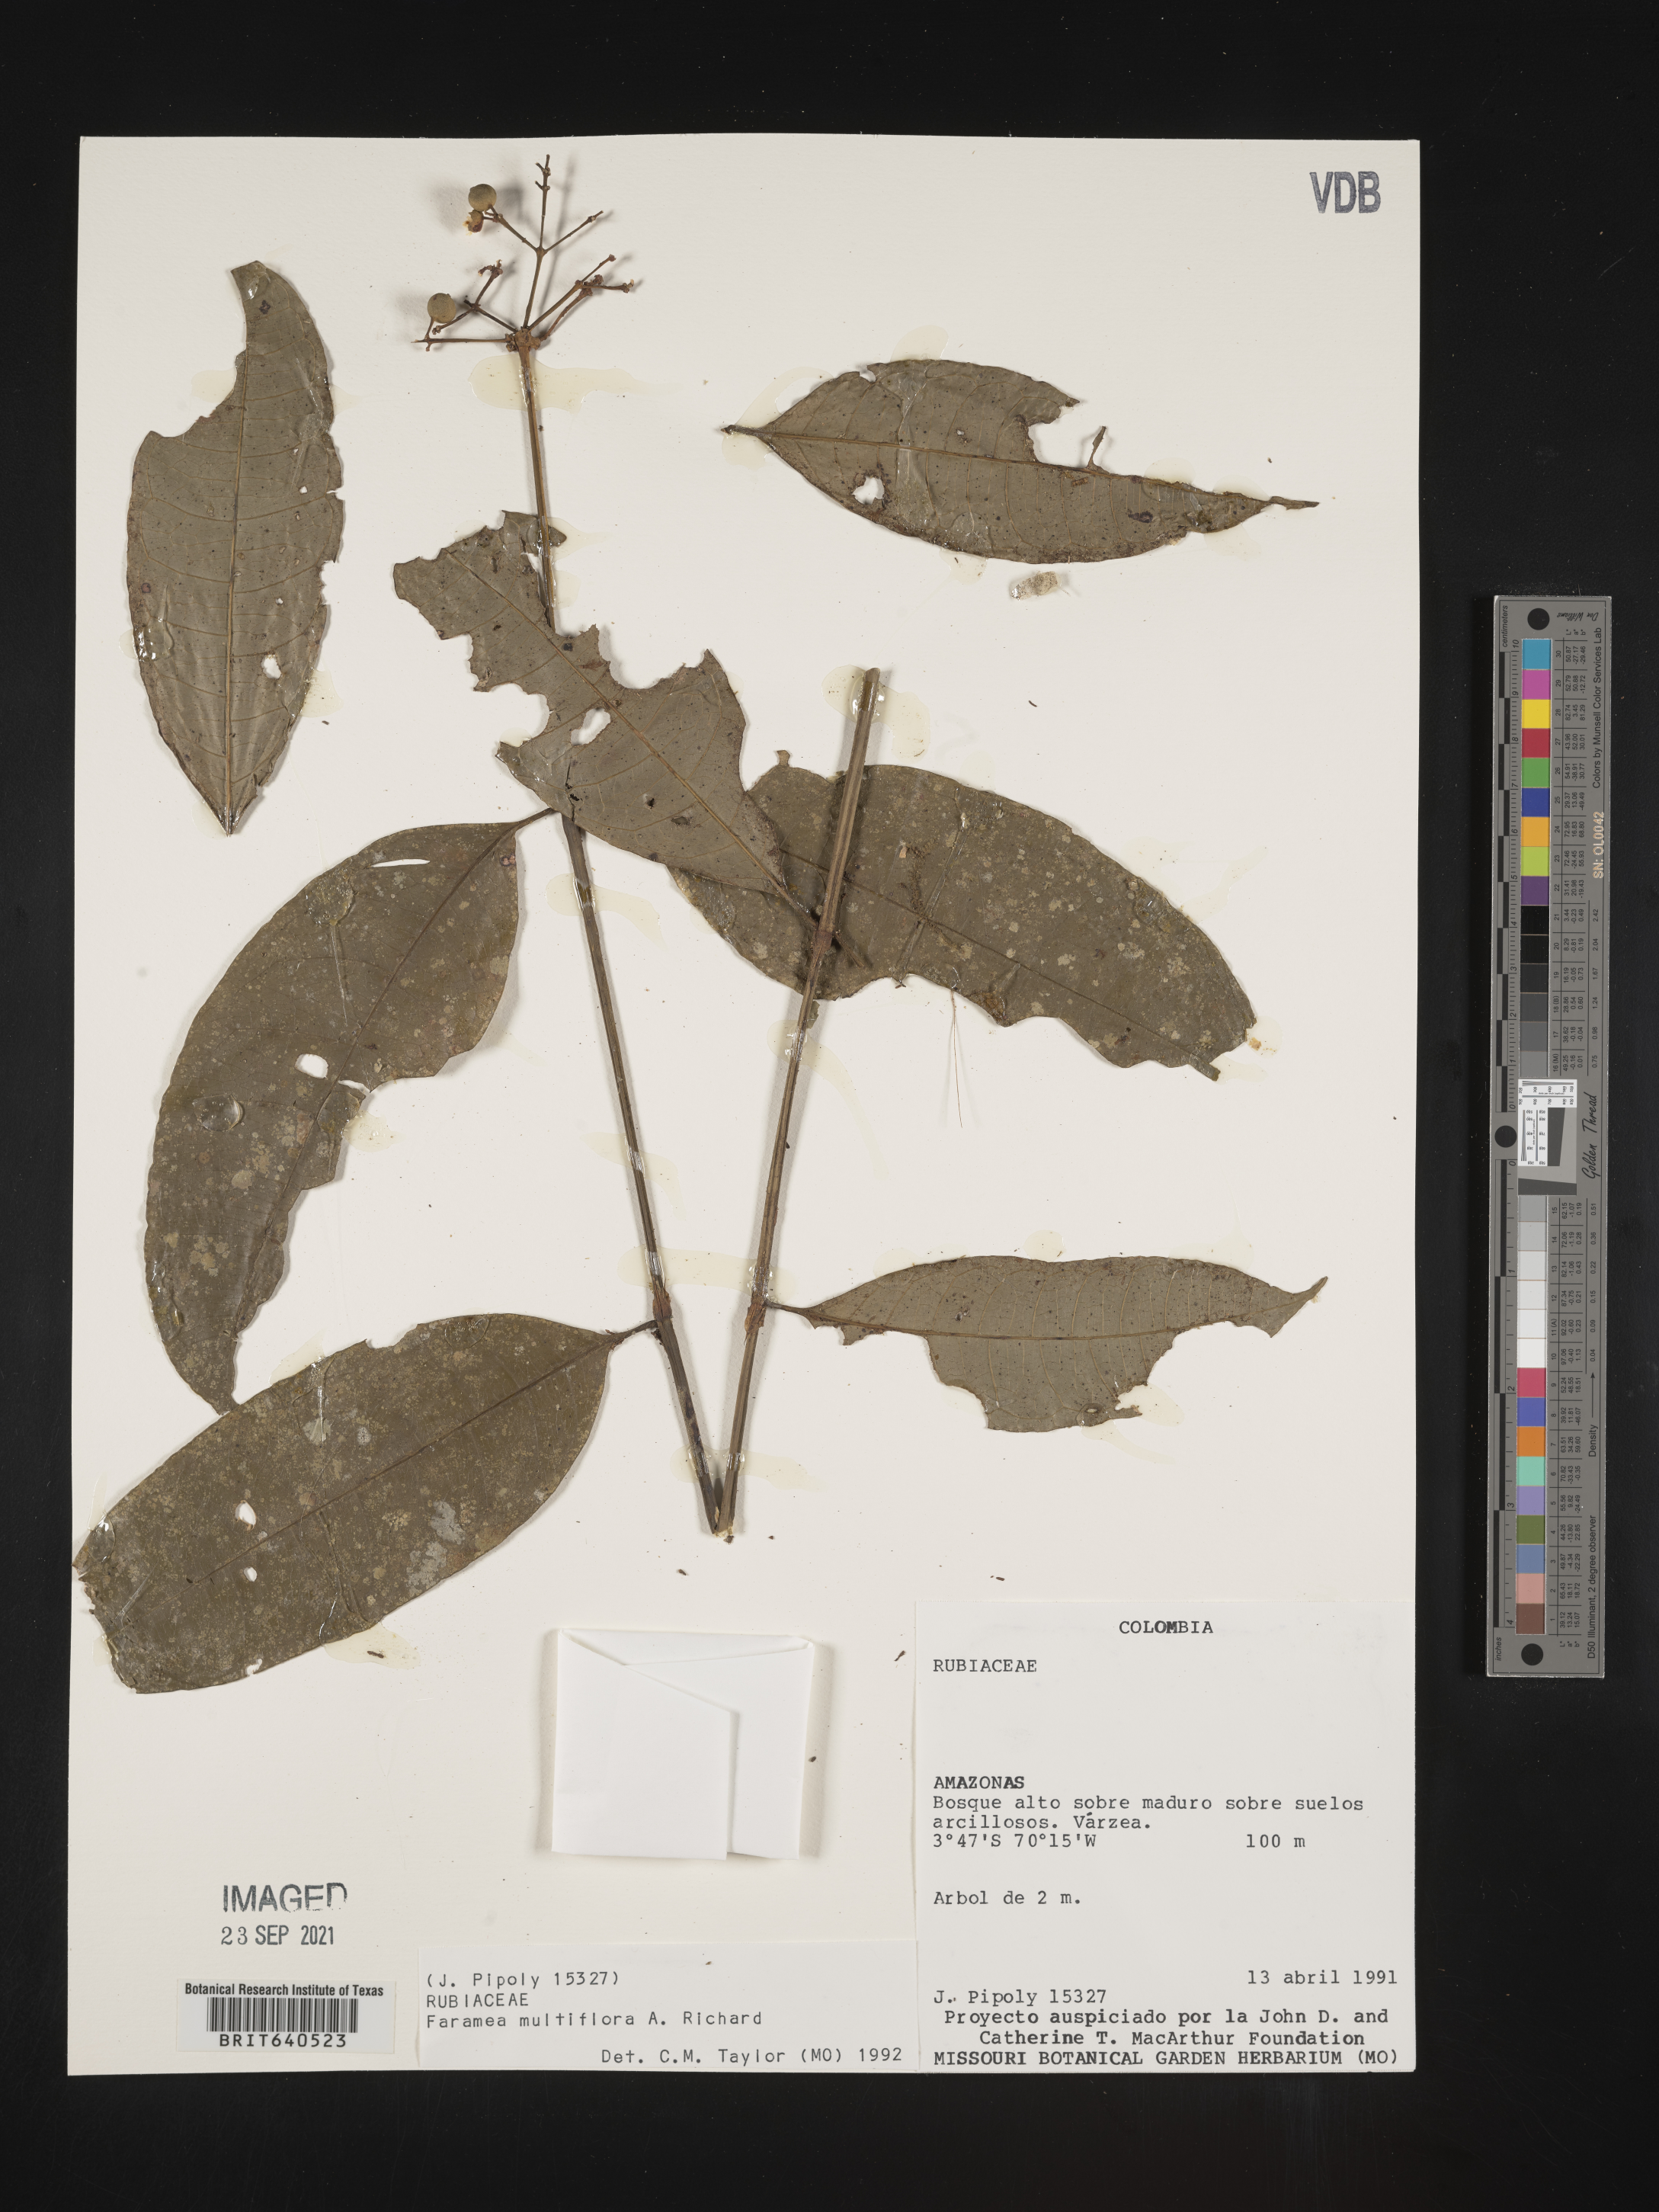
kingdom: Plantae
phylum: Tracheophyta
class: Magnoliopsida
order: Gentianales
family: Rubiaceae
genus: Faramea
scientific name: Faramea
